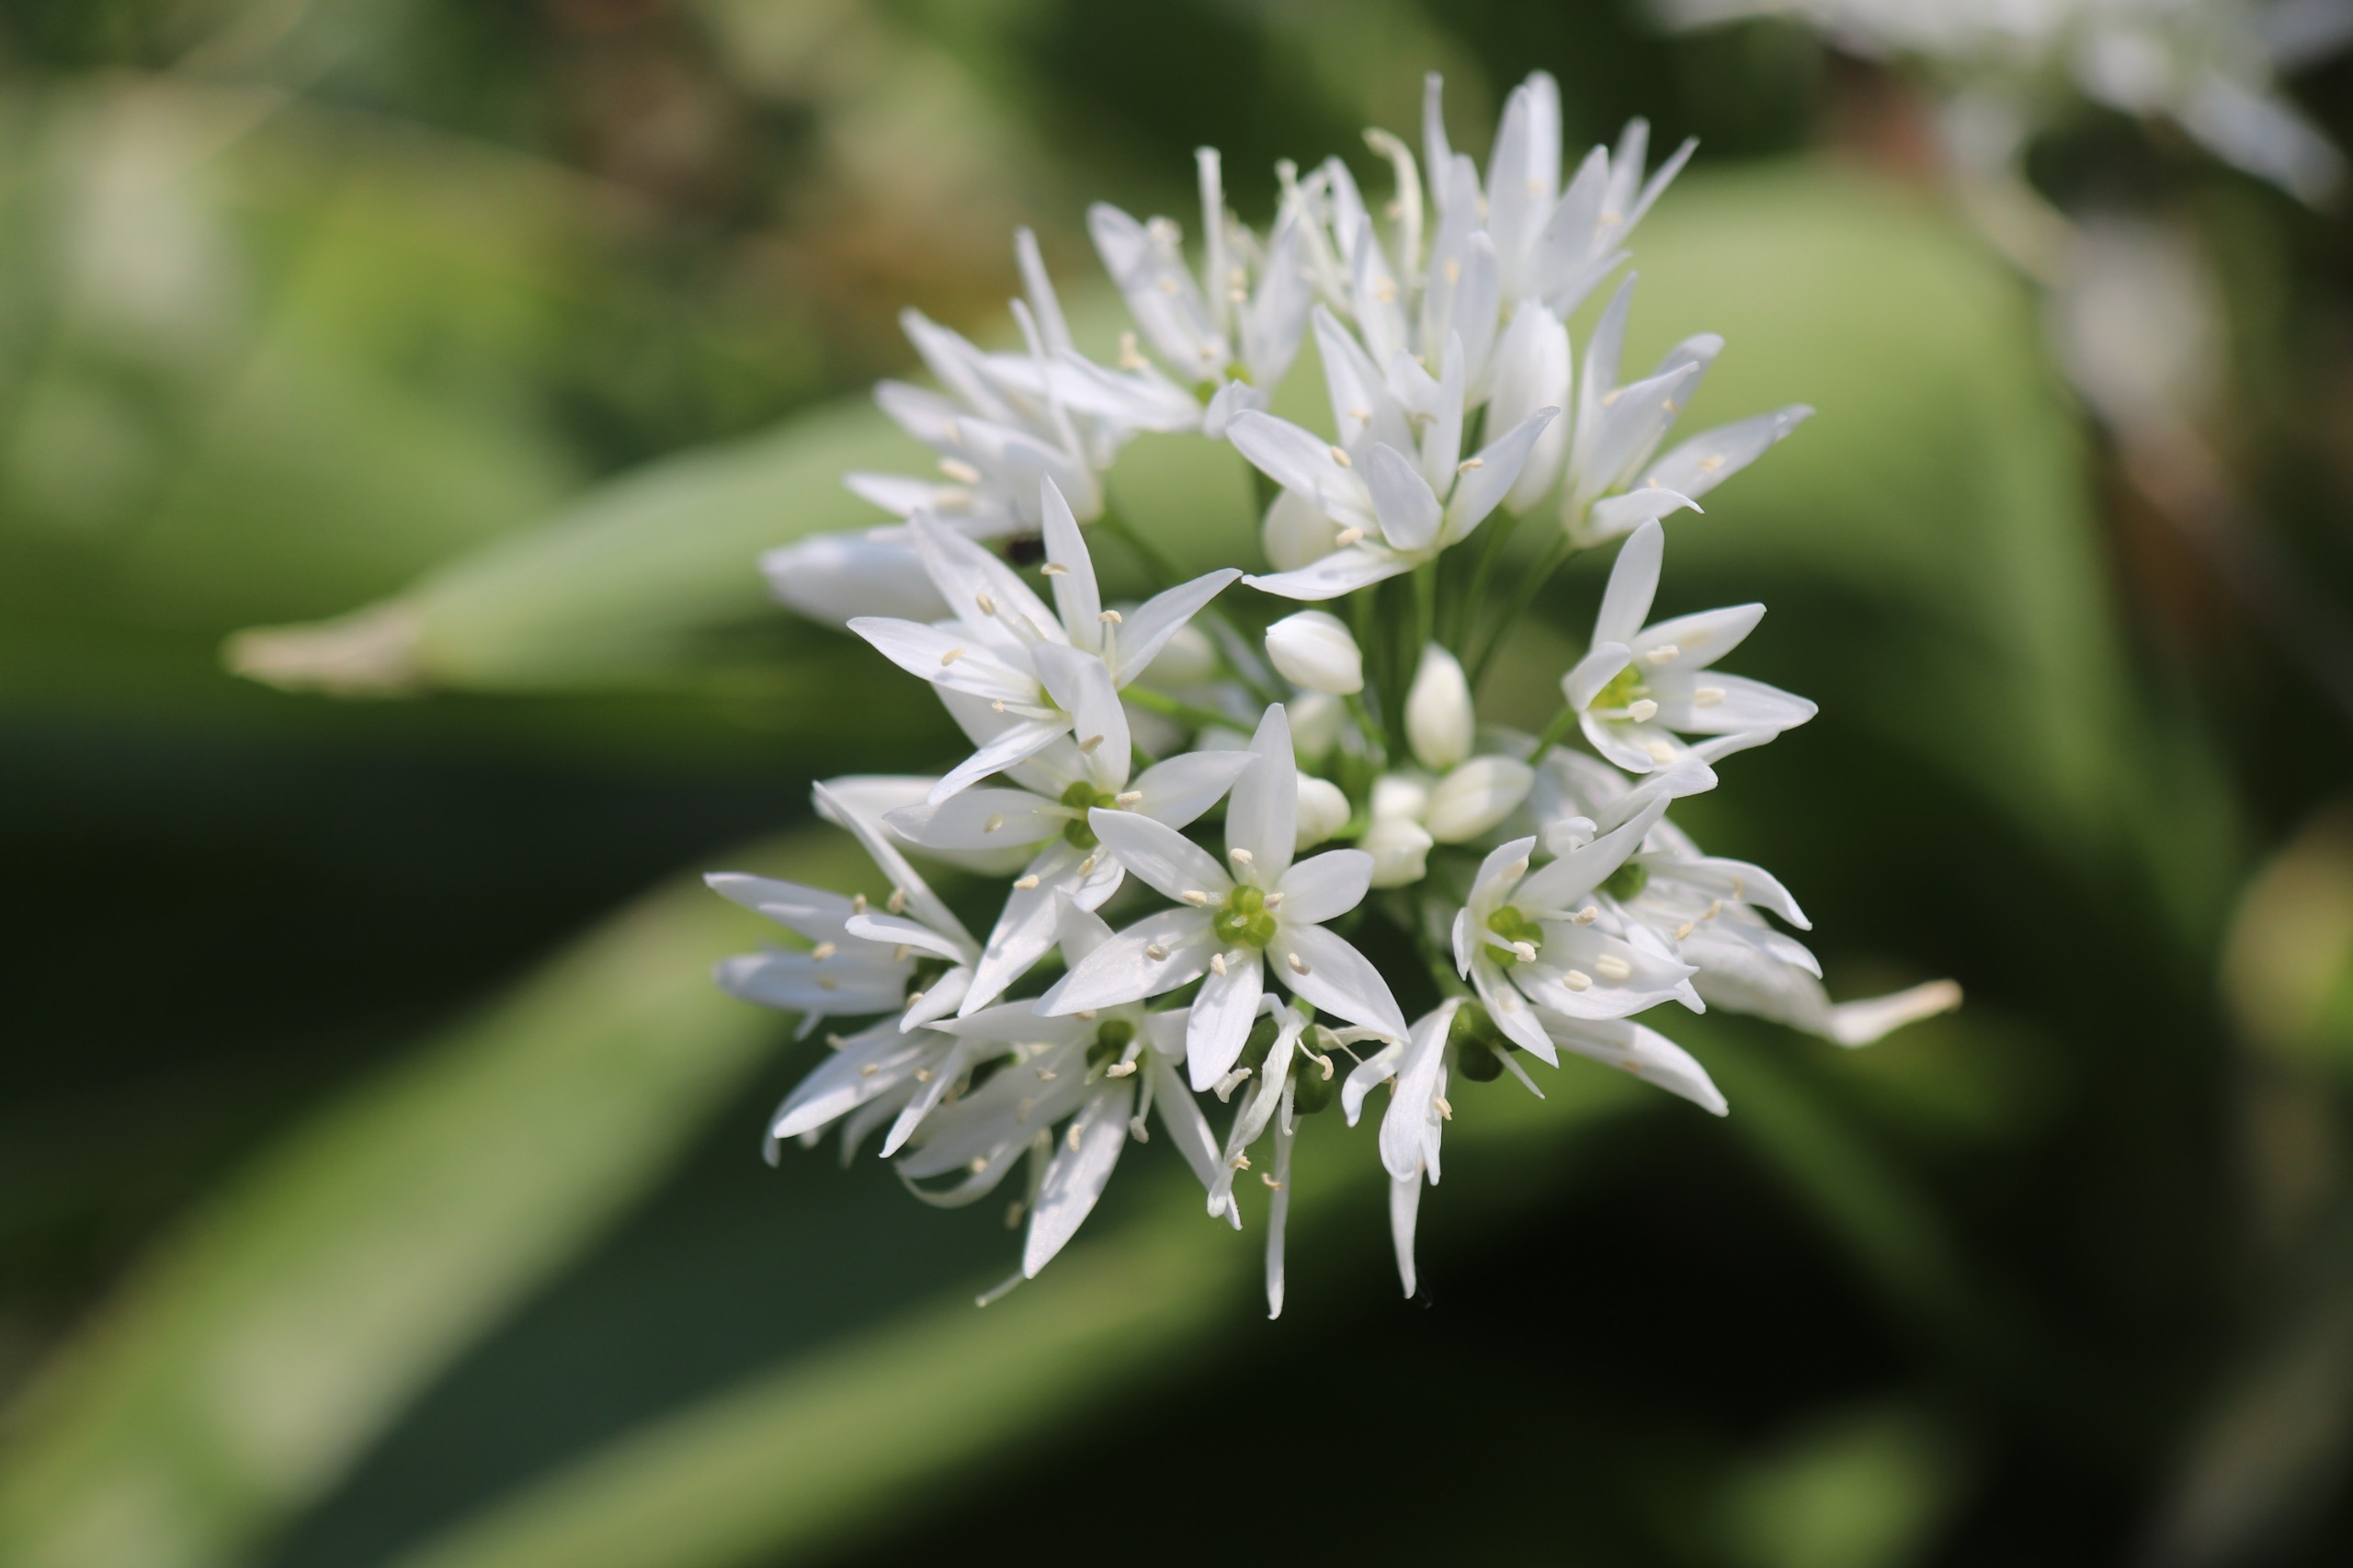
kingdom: Plantae
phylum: Tracheophyta
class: Liliopsida
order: Asparagales
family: Amaryllidaceae
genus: Allium
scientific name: Allium ursinum
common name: Rams-løg
